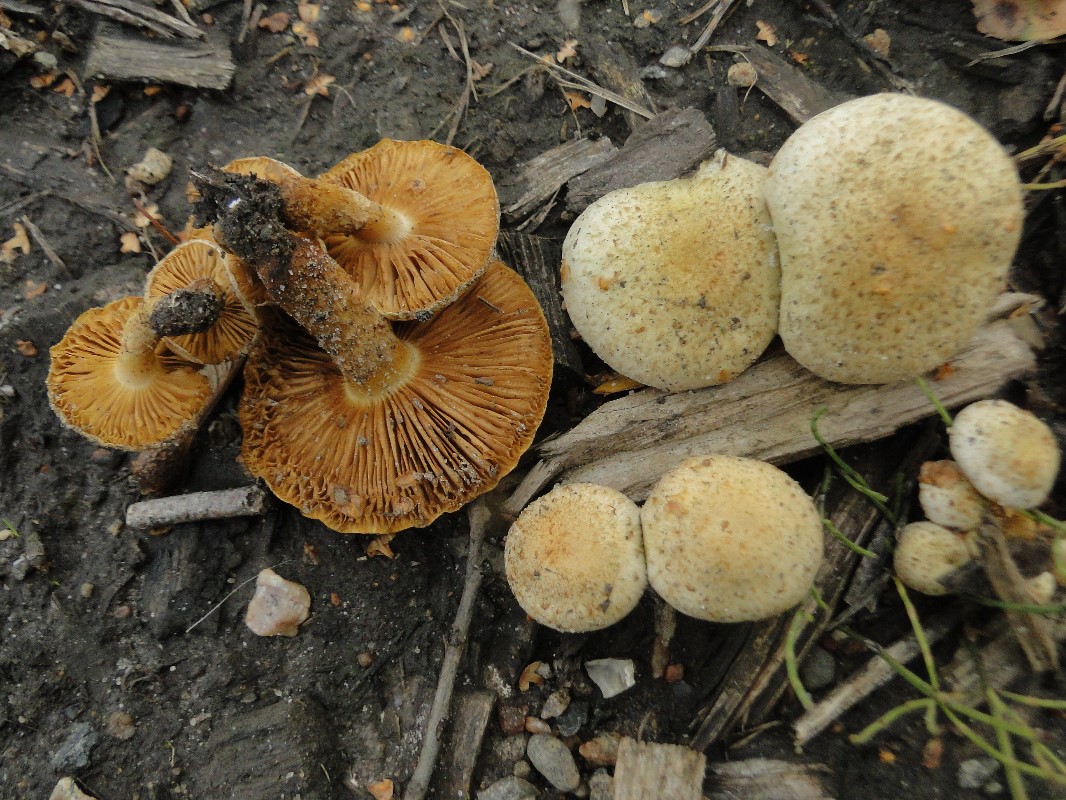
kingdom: Fungi
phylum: Basidiomycota
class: Agaricomycetes
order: Agaricales
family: Strophariaceae
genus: Pholiota
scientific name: Pholiota gummosa
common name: grøngul skælhat
